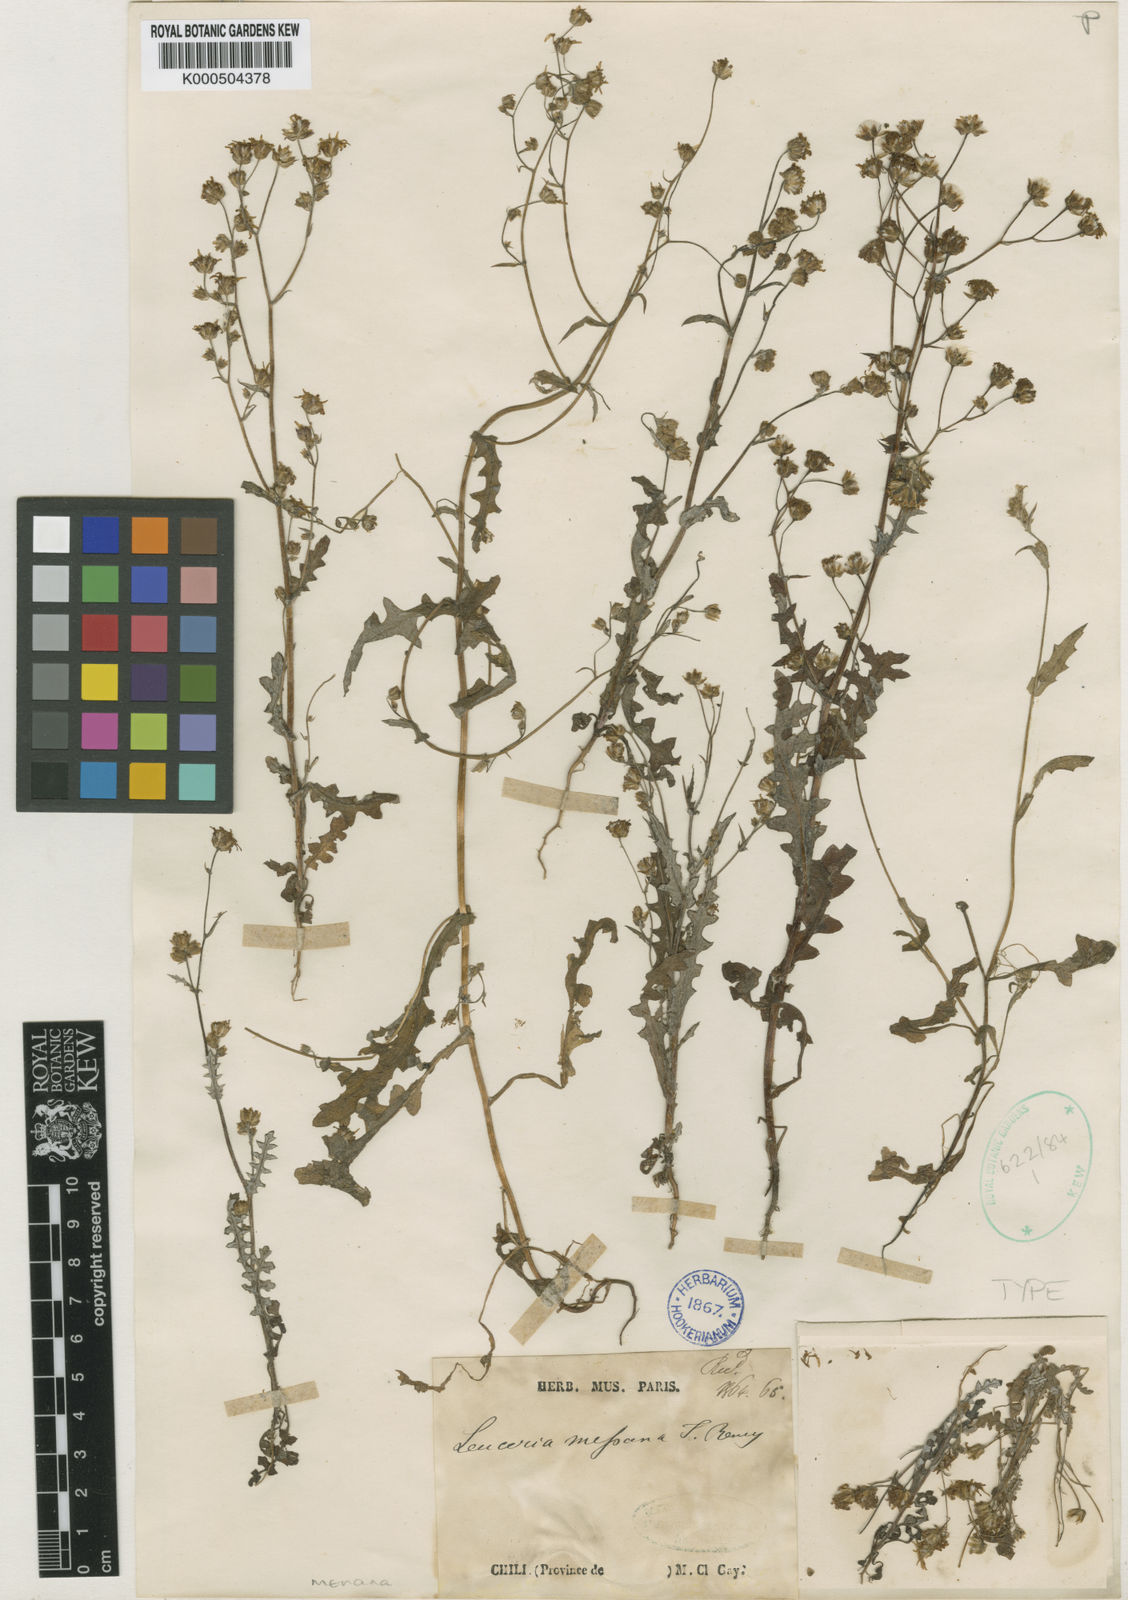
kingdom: Plantae
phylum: Tracheophyta
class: Magnoliopsida
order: Asterales
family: Asteraceae
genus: Leucheria
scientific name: Leucheria menana
